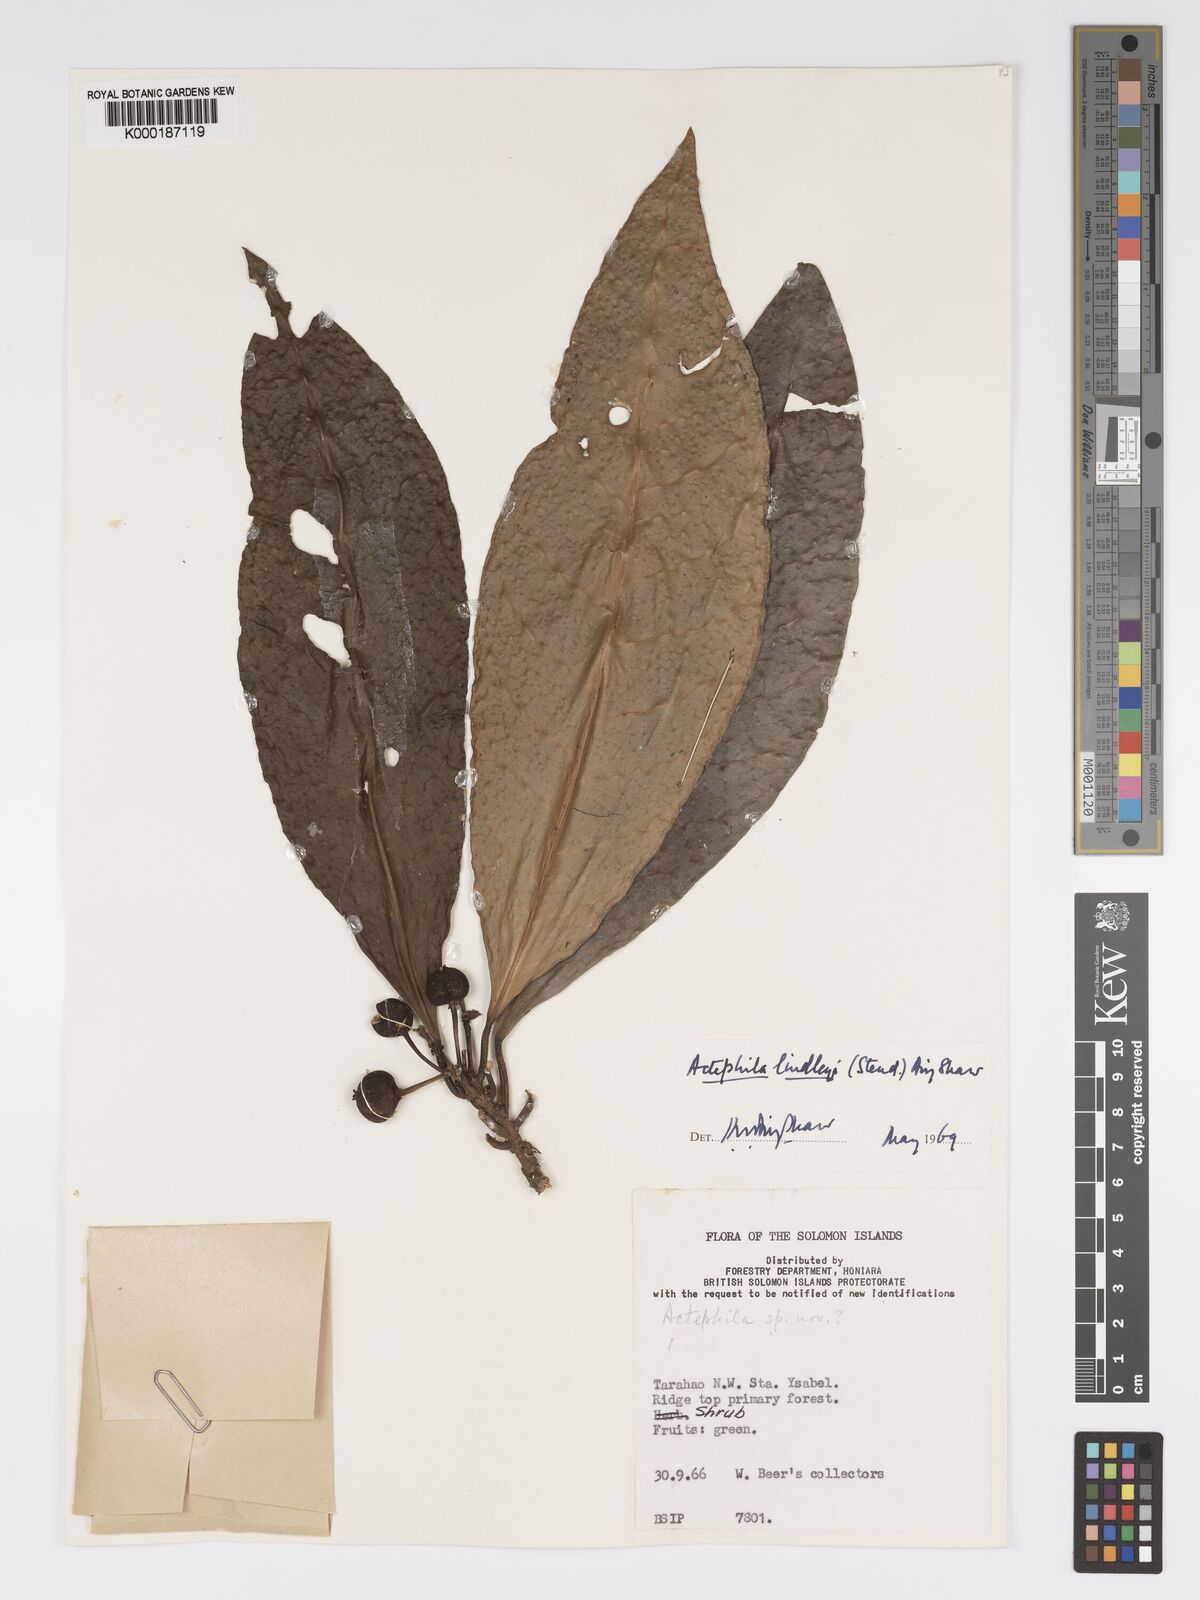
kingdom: Plantae
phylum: Tracheophyta
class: Magnoliopsida
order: Malpighiales
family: Phyllanthaceae
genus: Actephila
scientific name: Actephila lindleyi
